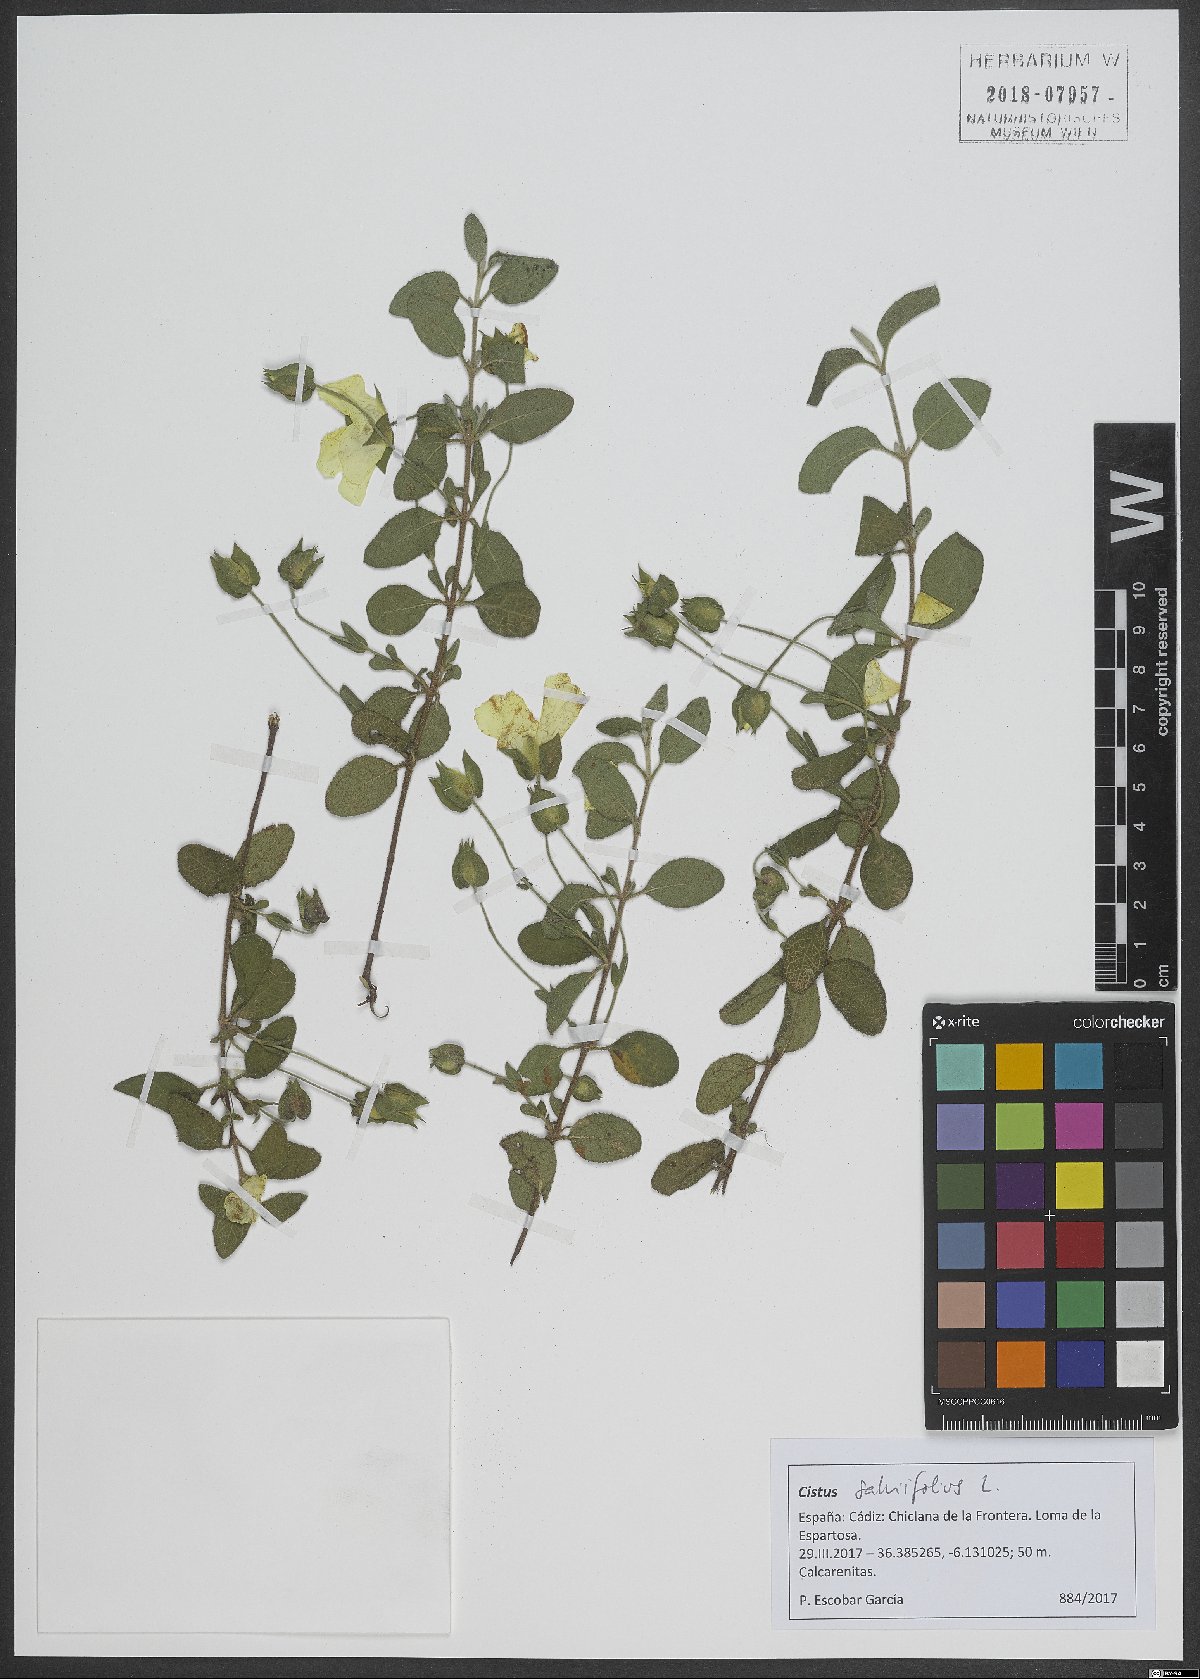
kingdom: Plantae
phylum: Tracheophyta
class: Magnoliopsida
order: Malvales
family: Cistaceae
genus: Cistus
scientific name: Cistus salviifolius
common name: Salvia cistus
